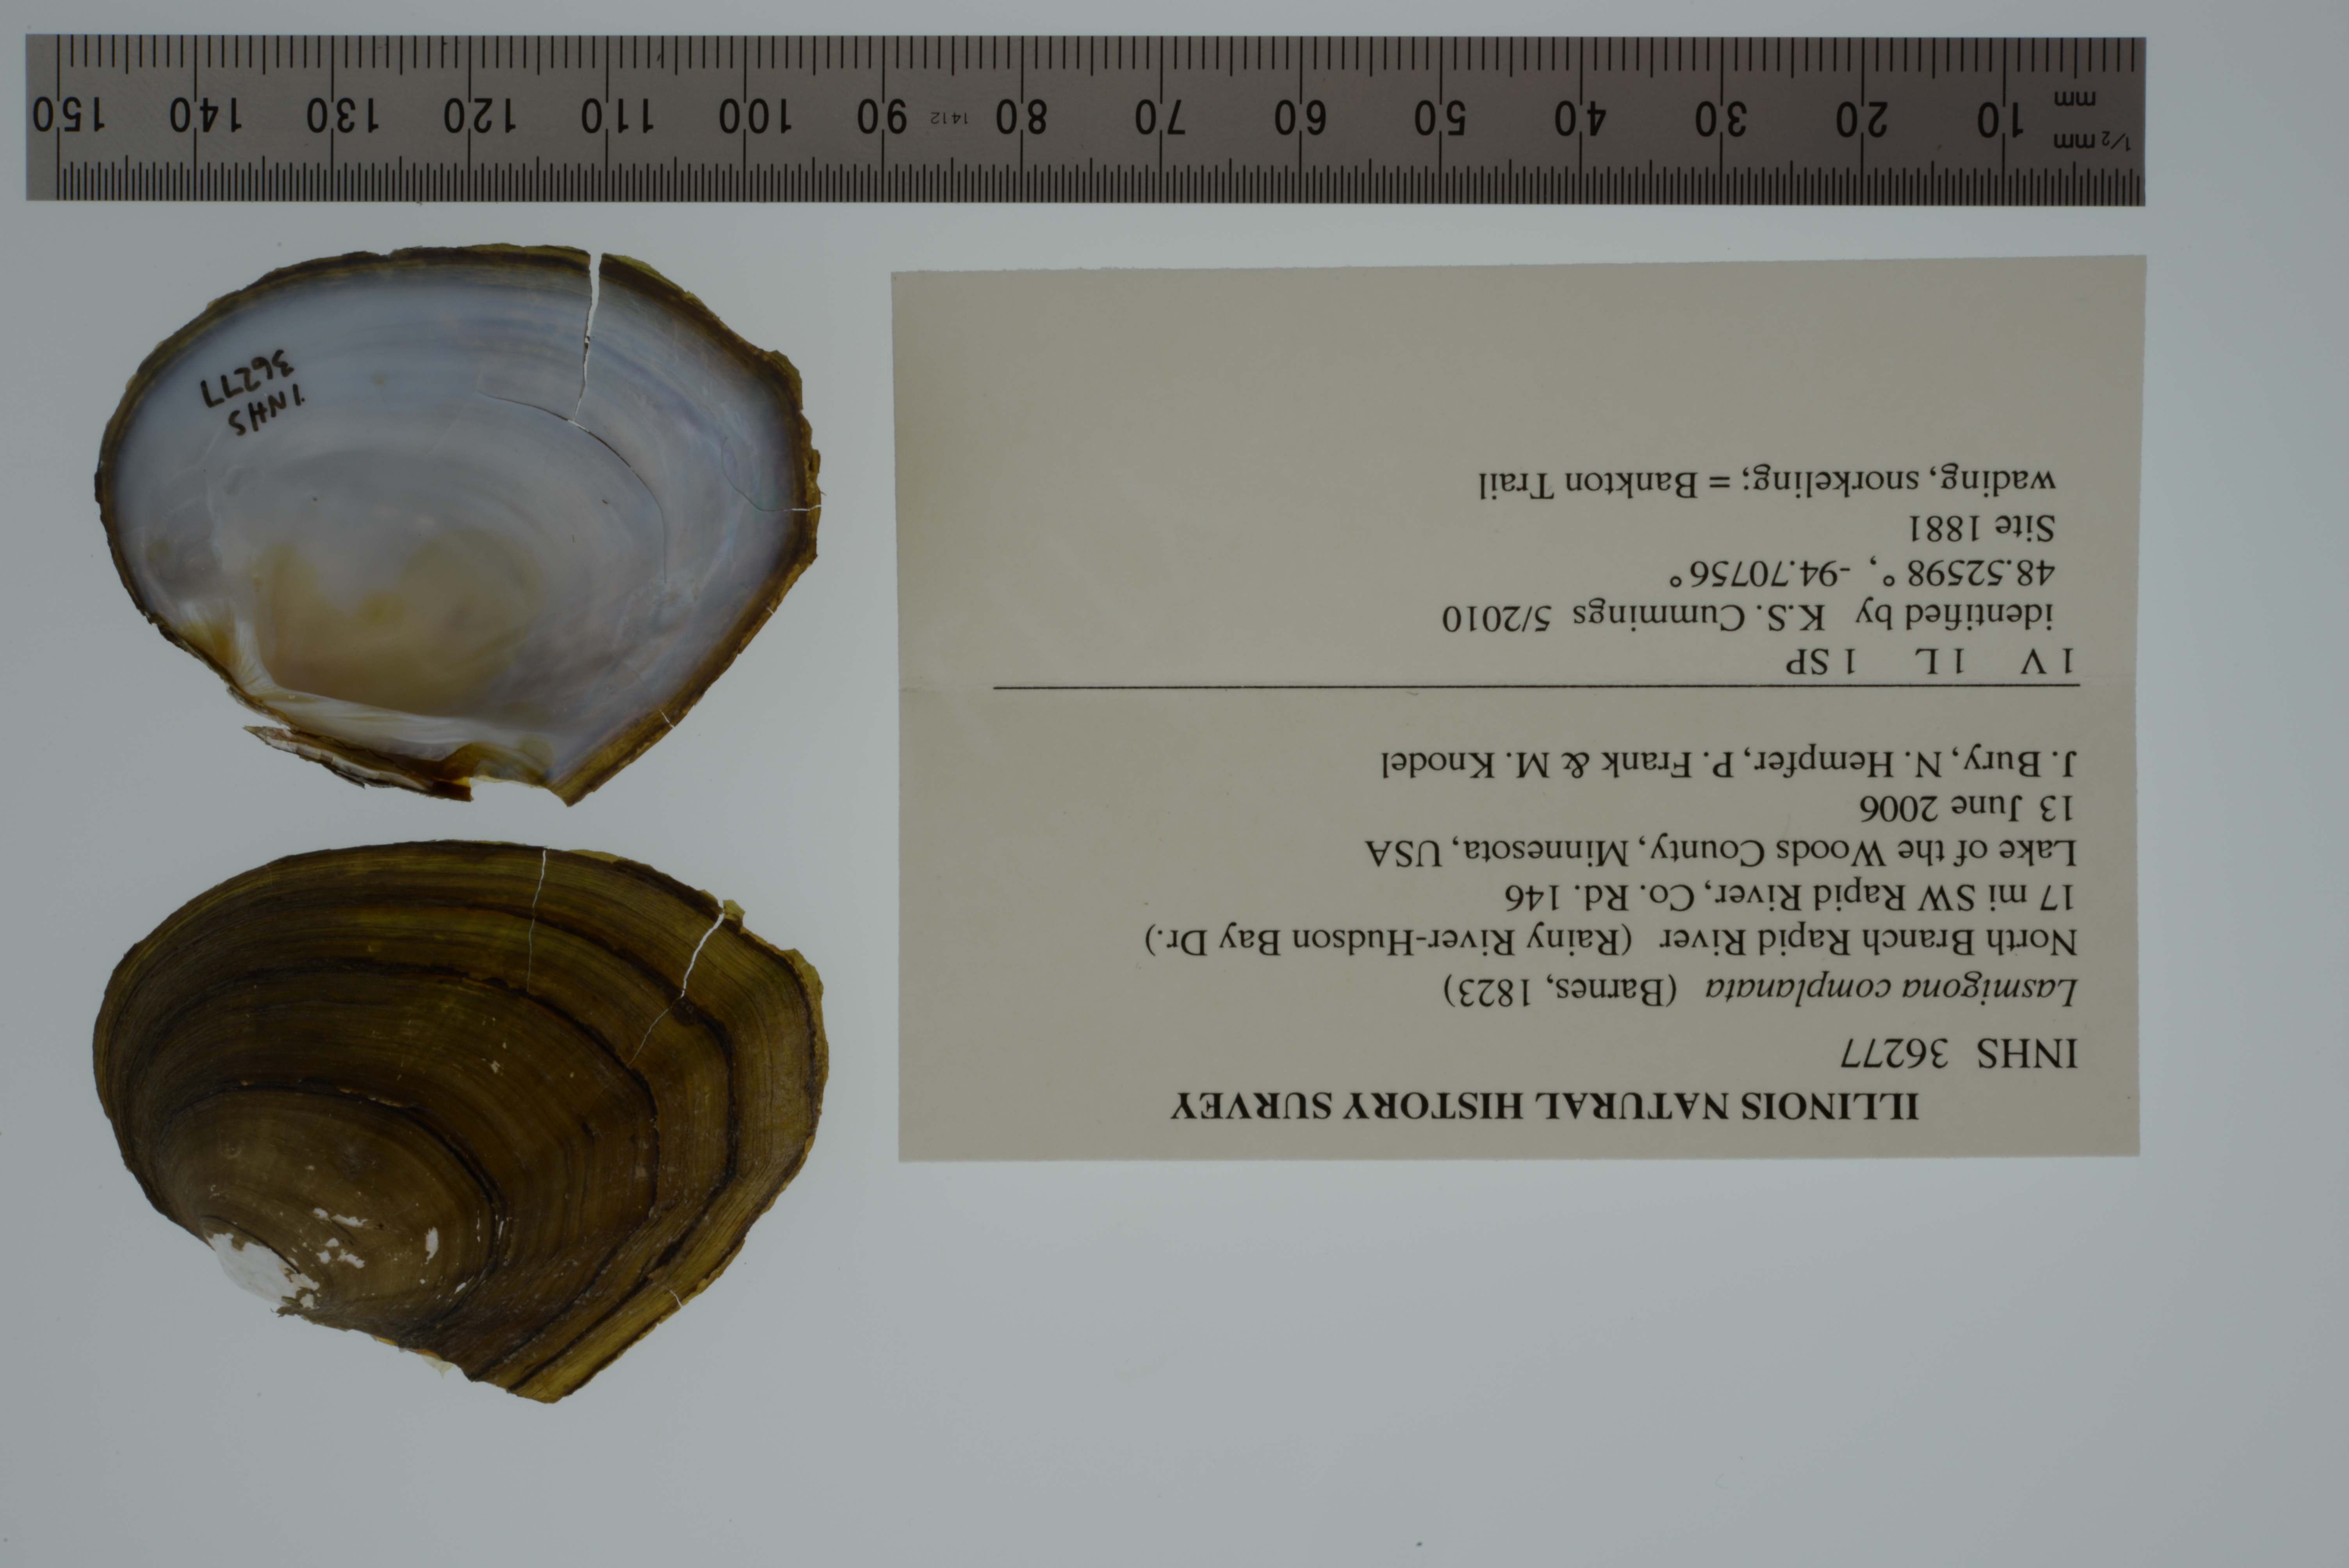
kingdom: Animalia
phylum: Mollusca
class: Bivalvia
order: Unionida
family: Unionidae
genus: Lasmigona
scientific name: Lasmigona complanata
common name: White heelsplitter
